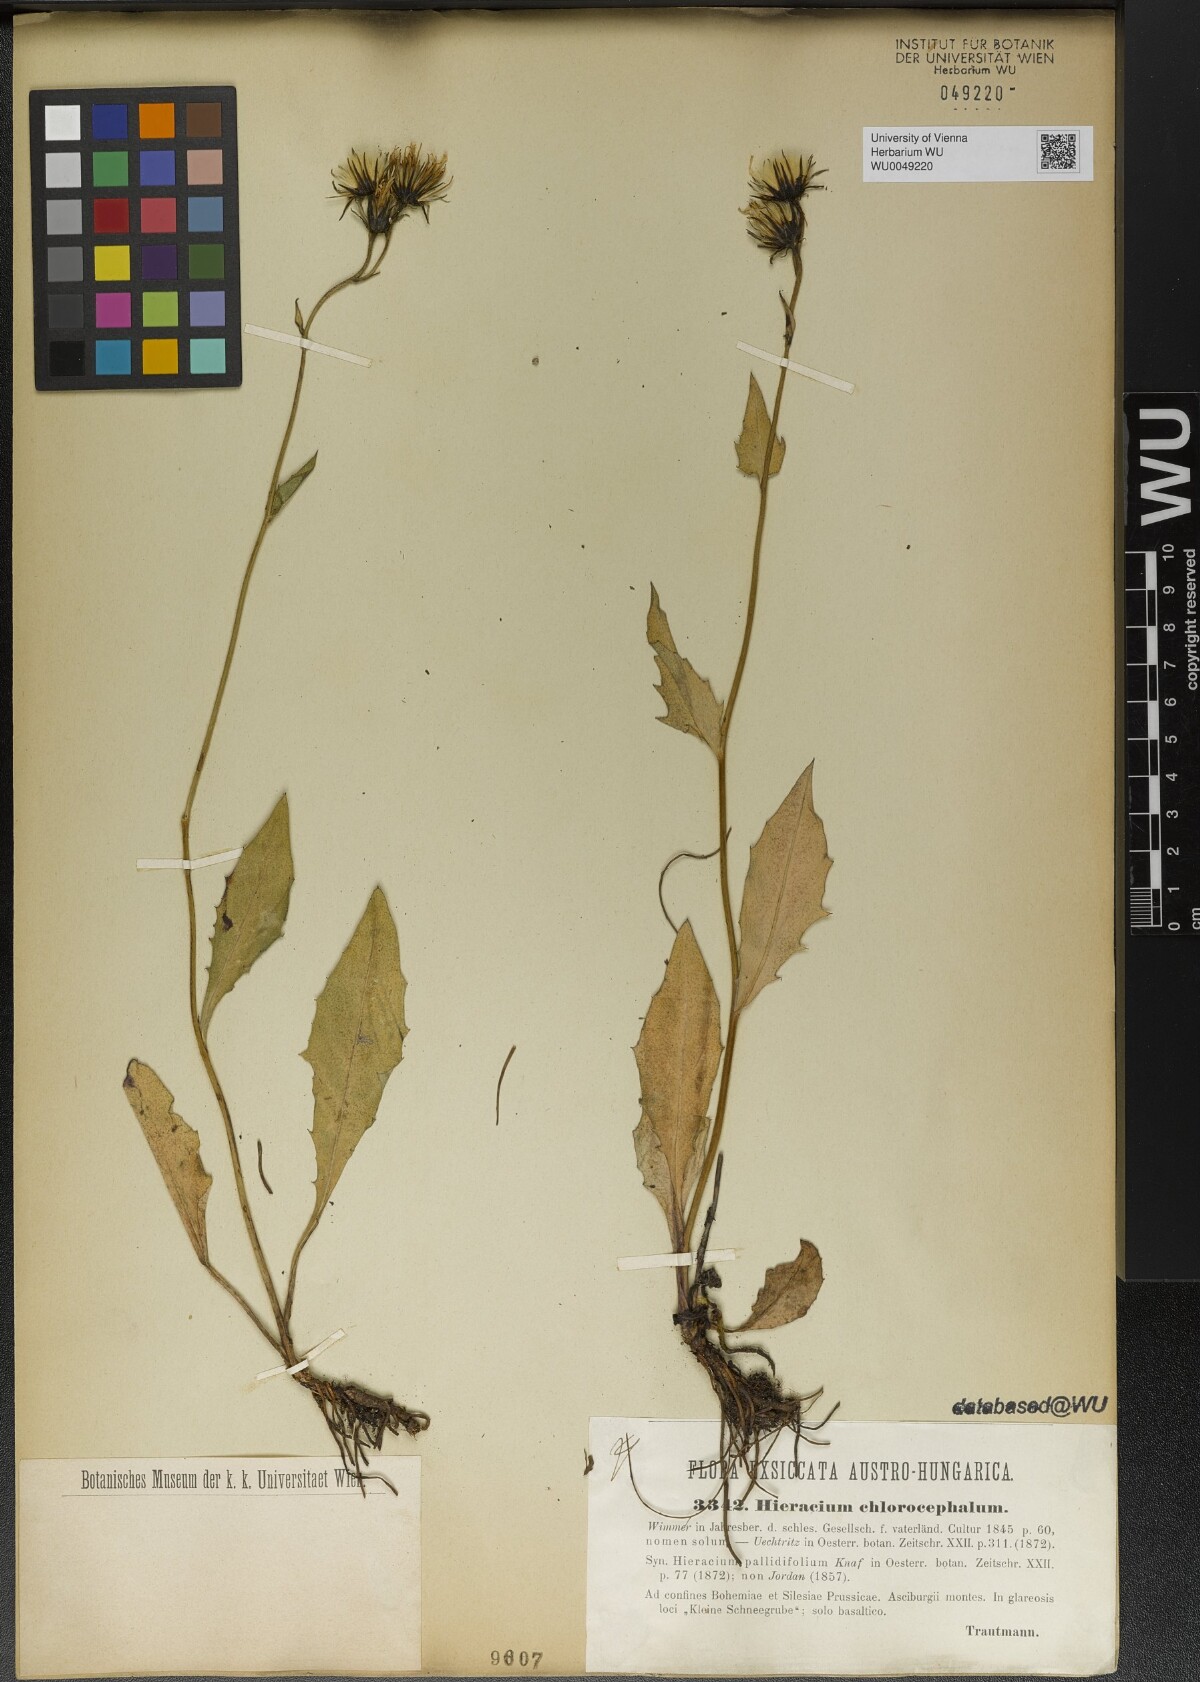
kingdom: Plantae
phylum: Tracheophyta
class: Magnoliopsida
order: Asterales
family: Asteraceae
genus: Hieracium
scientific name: Hieracium chlorocephalum
